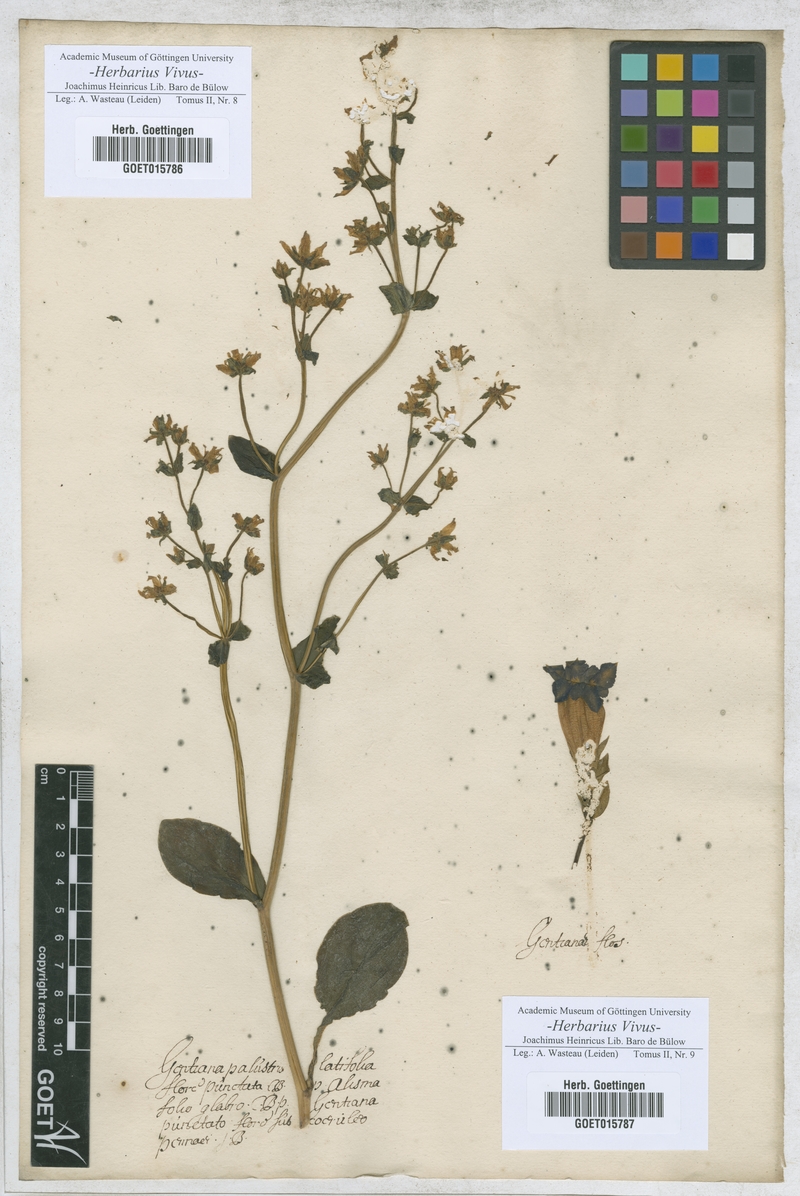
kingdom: Plantae
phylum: Tracheophyta
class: Magnoliopsida
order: Gentianales
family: Gentianaceae
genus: Swertia
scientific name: Swertia perennis
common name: Alpine bog swertia
